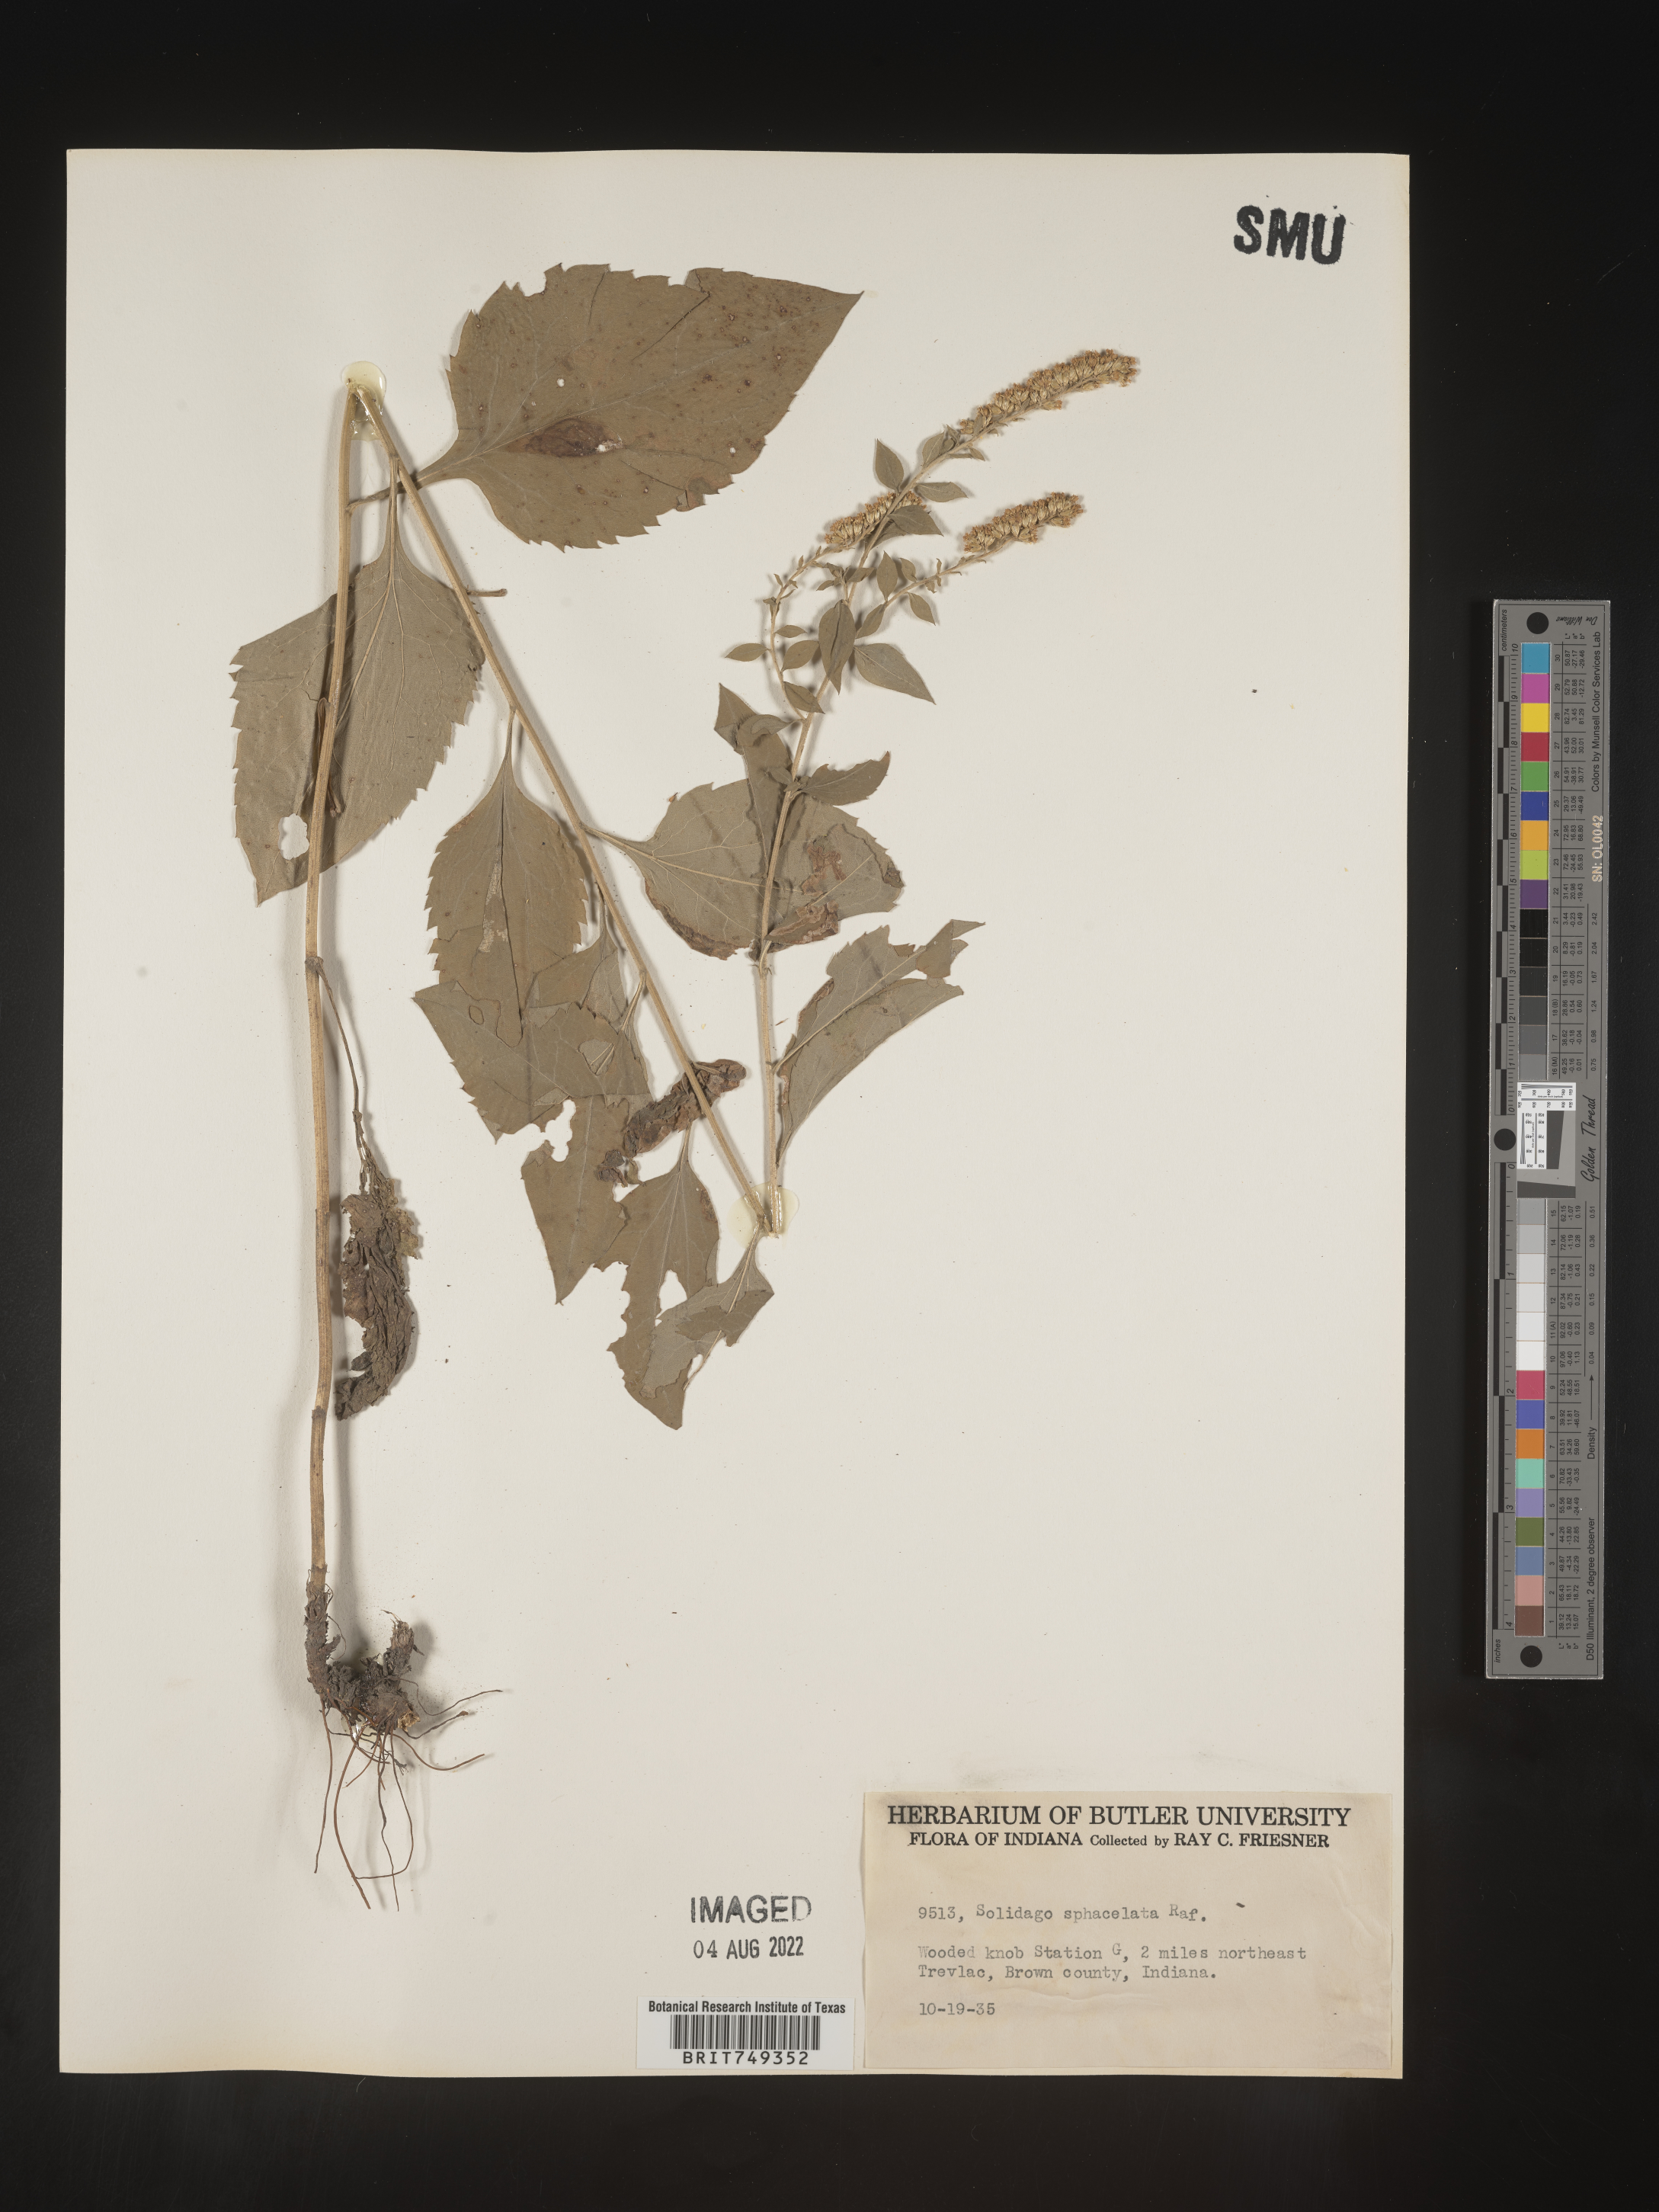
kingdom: Plantae
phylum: Tracheophyta
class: Magnoliopsida
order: Asterales
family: Asteraceae
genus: Solidago
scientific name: Solidago sphacelata
